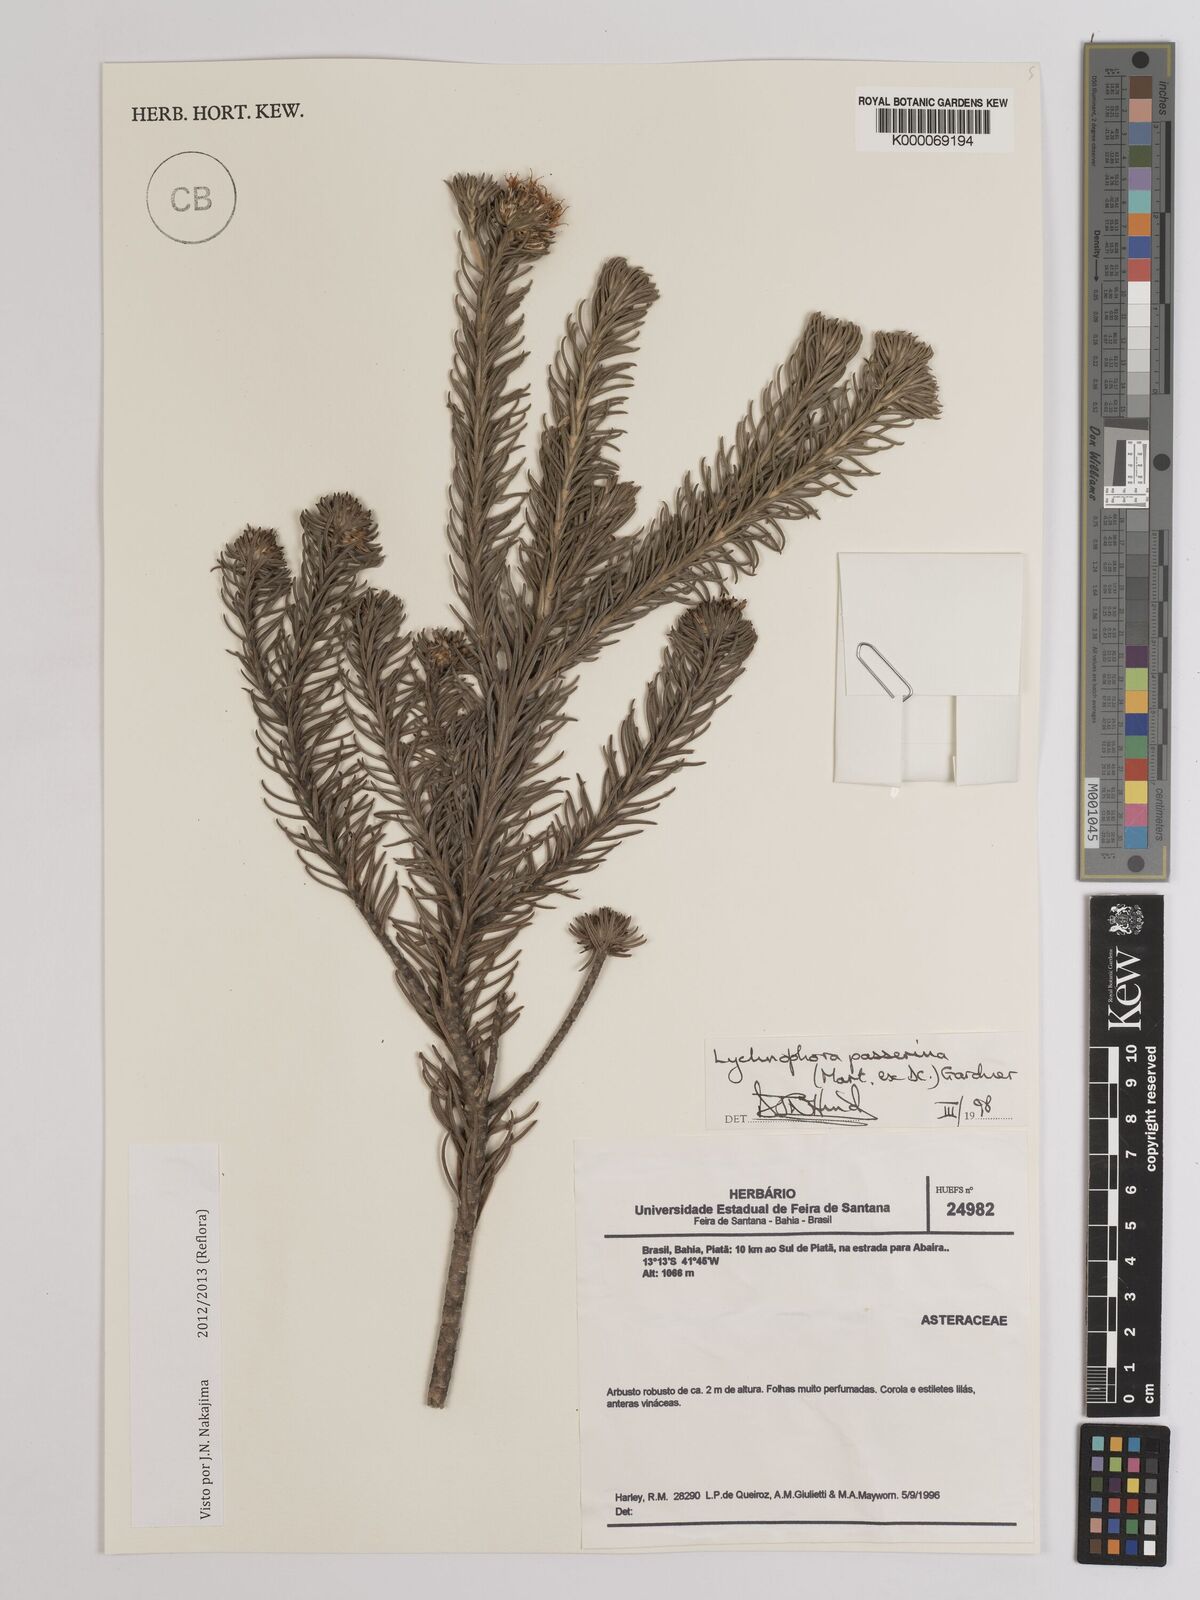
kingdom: Plantae
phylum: Tracheophyta
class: Magnoliopsida
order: Asterales
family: Asteraceae
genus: Lychnophora
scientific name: Lychnophora passerina
